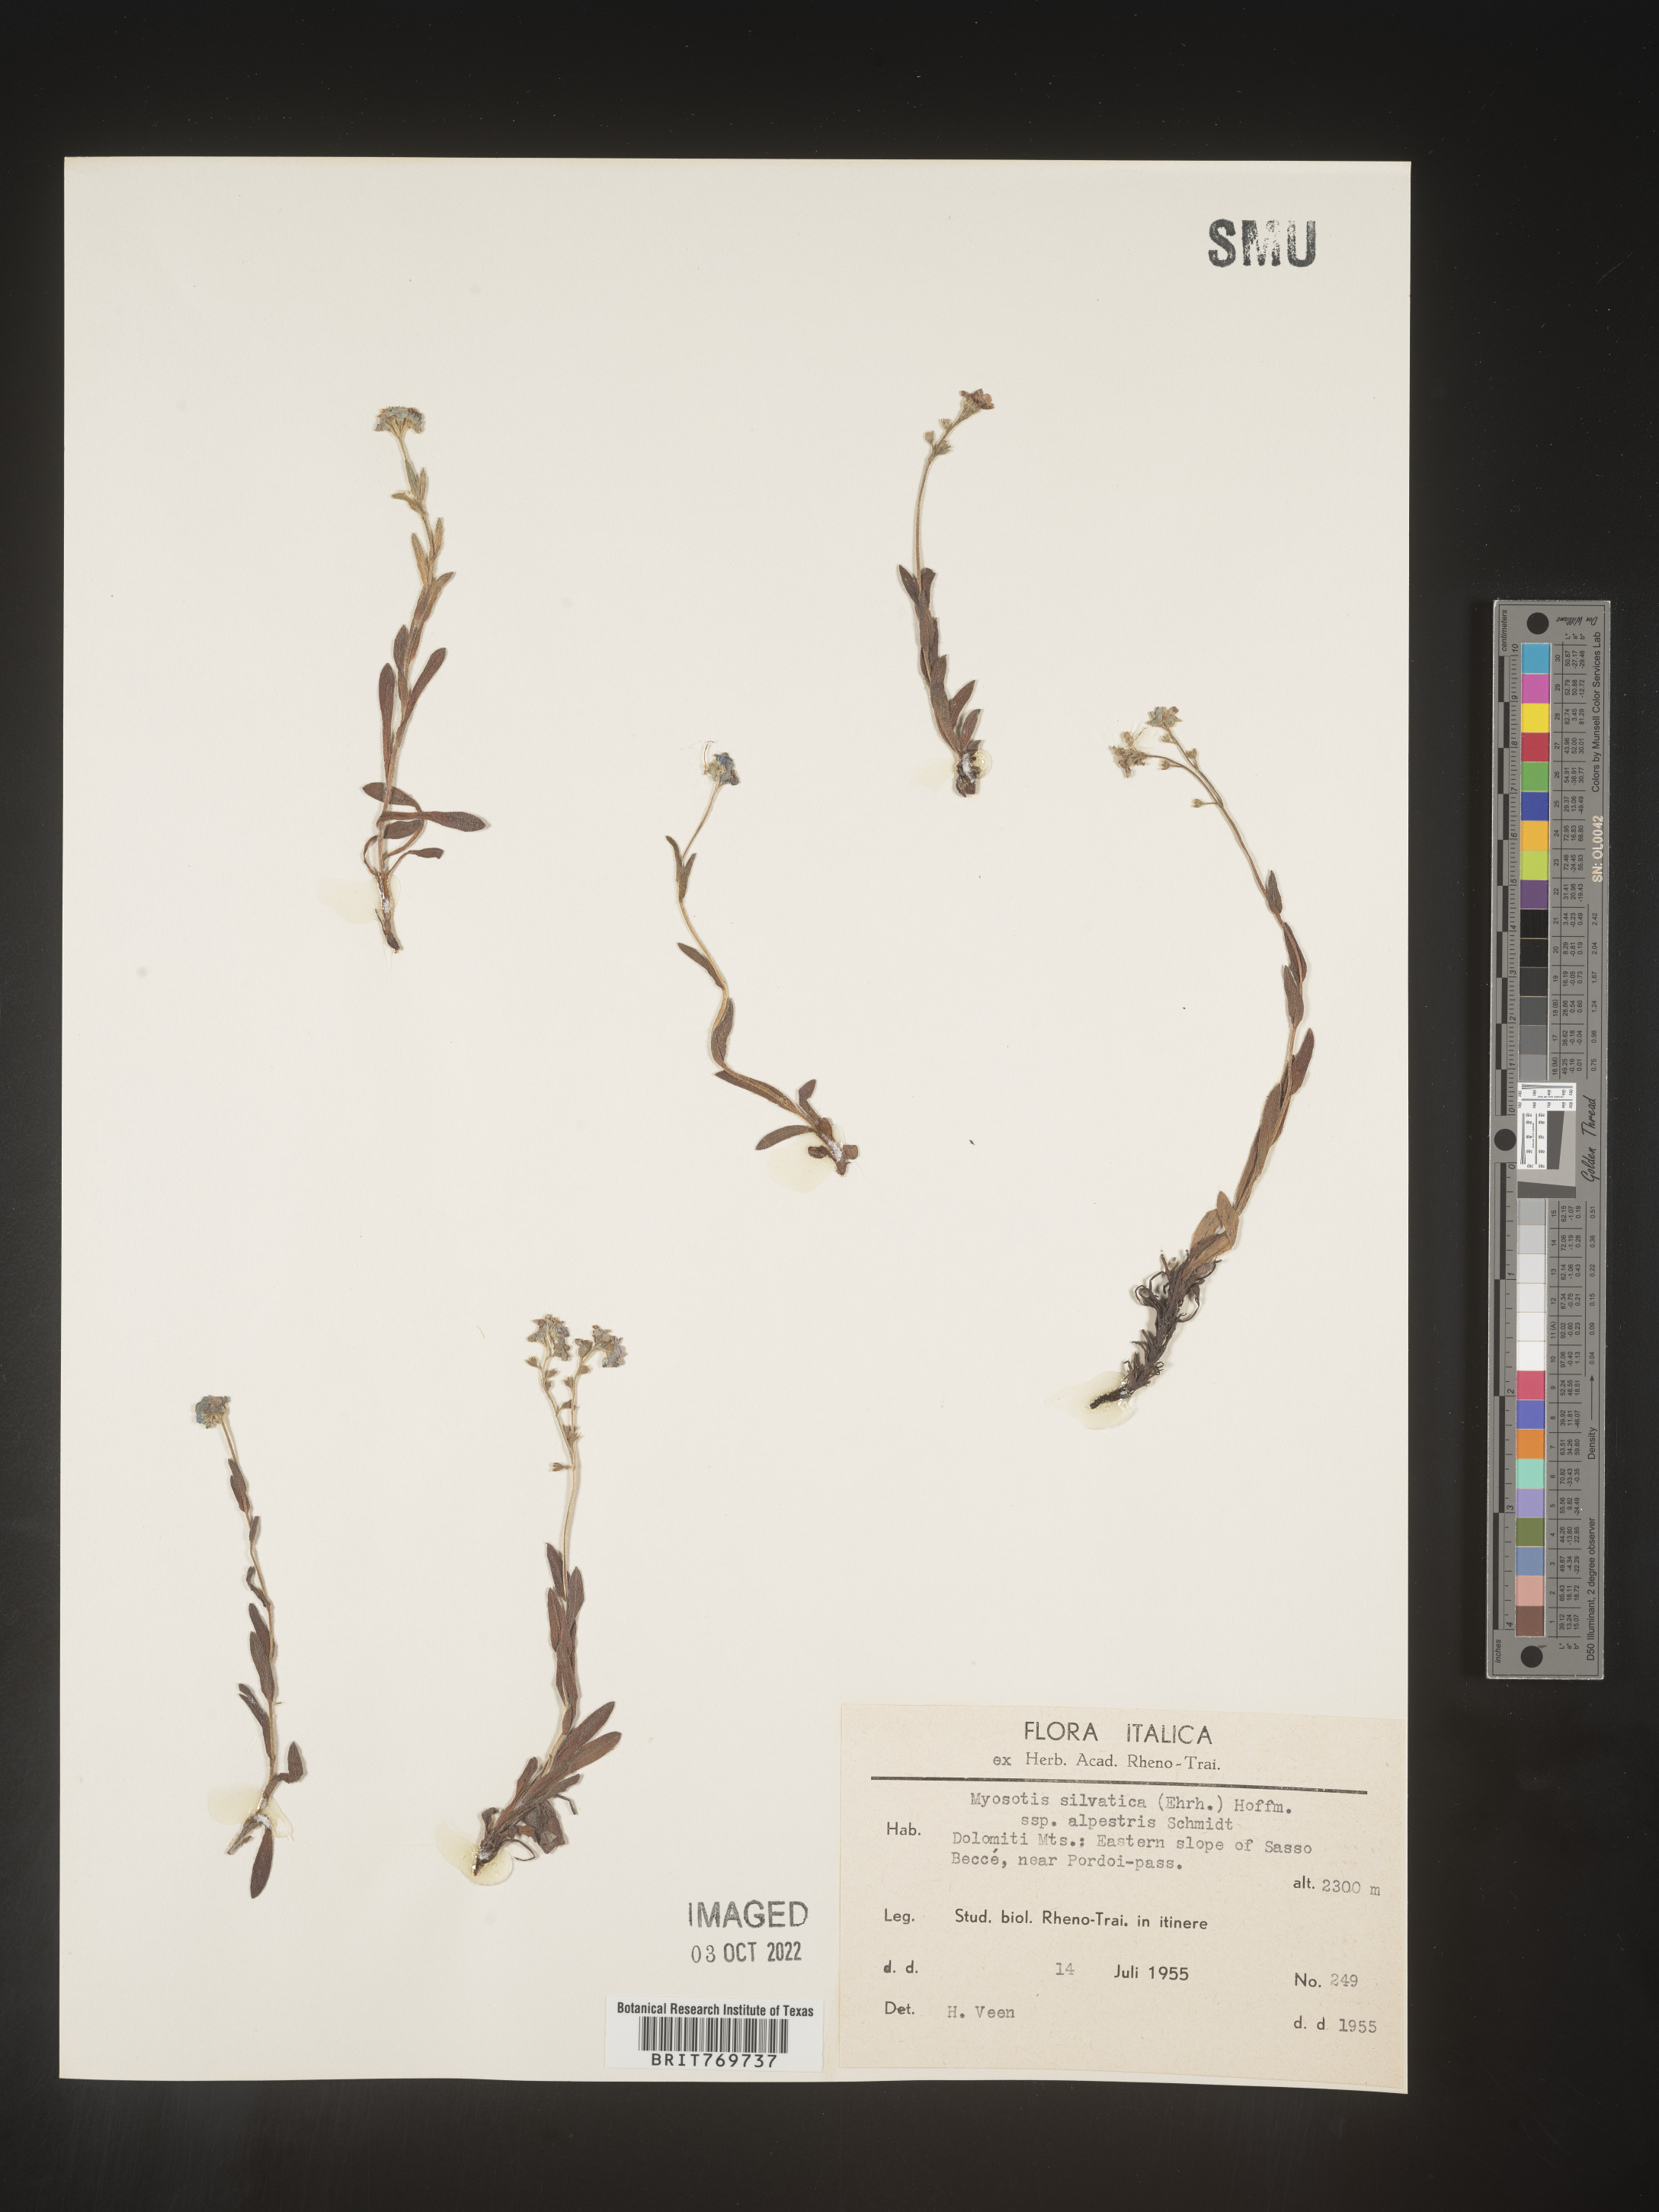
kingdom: Plantae
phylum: Tracheophyta
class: Magnoliopsida
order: Boraginales
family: Boraginaceae
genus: Myosotis
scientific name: Myosotis
